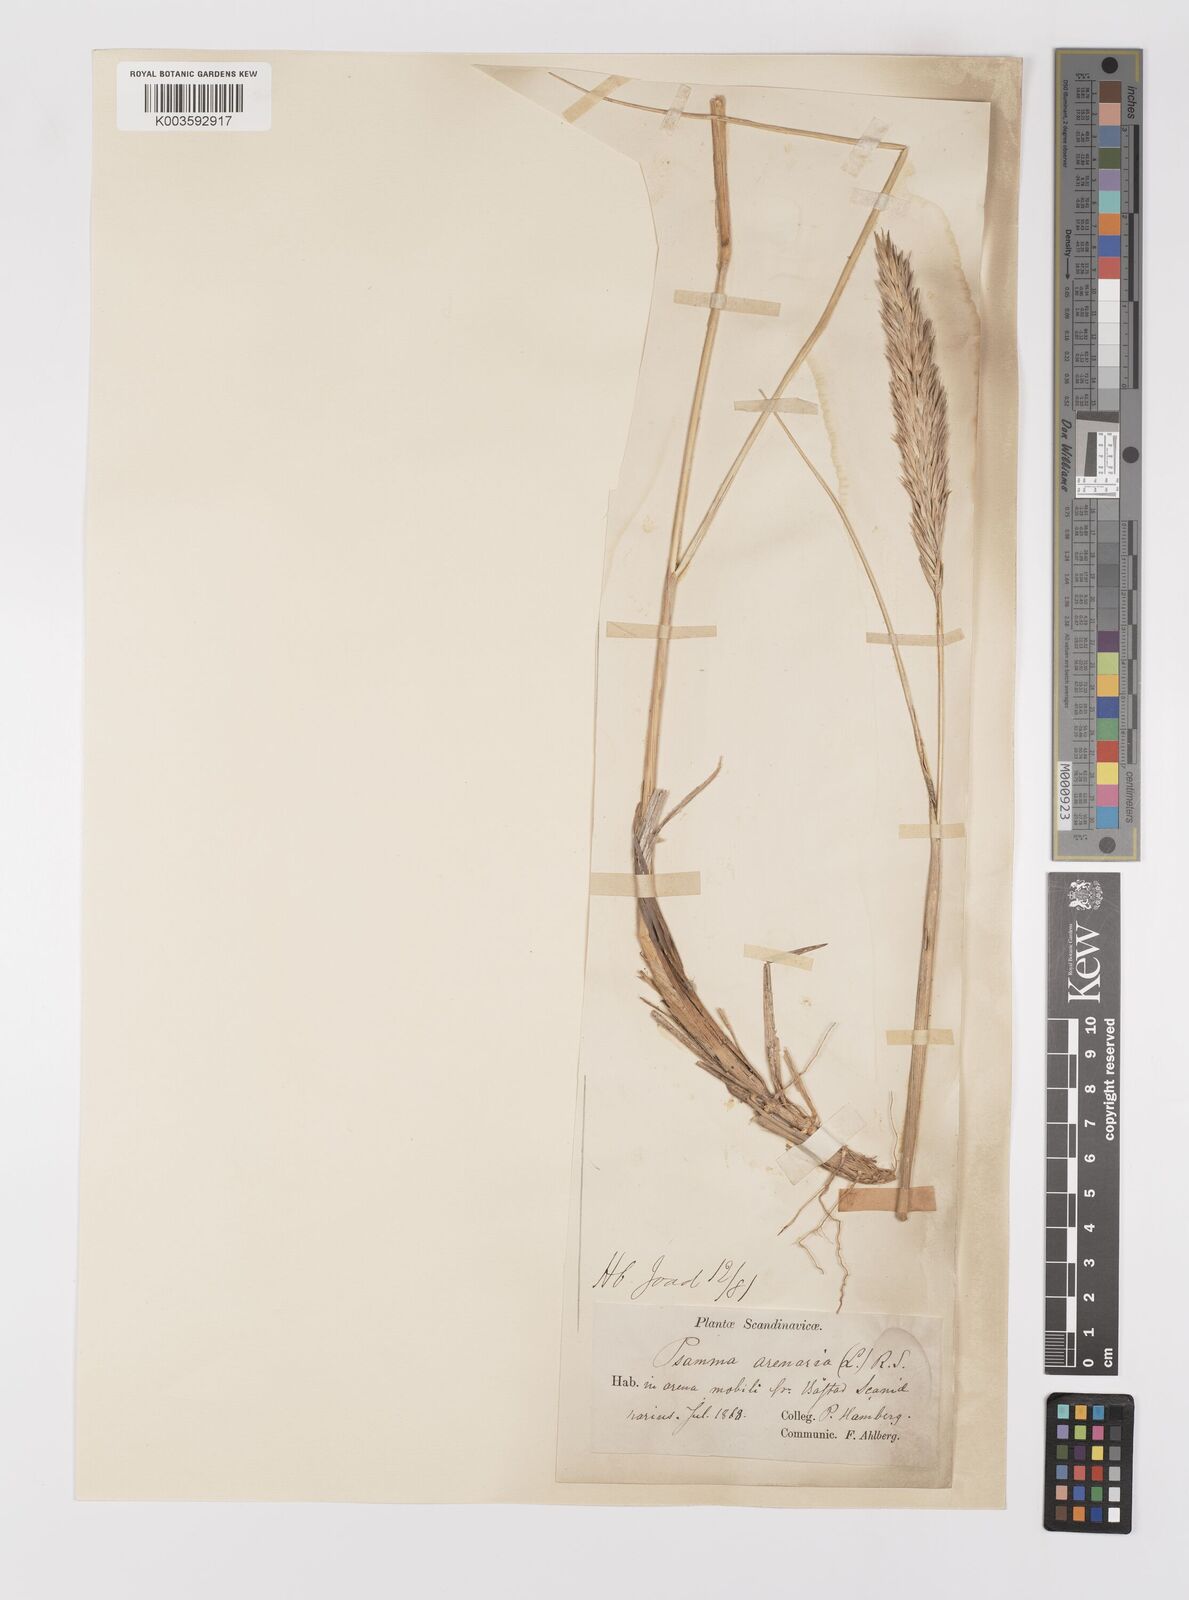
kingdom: Plantae
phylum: Tracheophyta
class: Liliopsida
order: Poales
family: Poaceae
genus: Calamagrostis
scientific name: Calamagrostis arenaria
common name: European beachgrass
